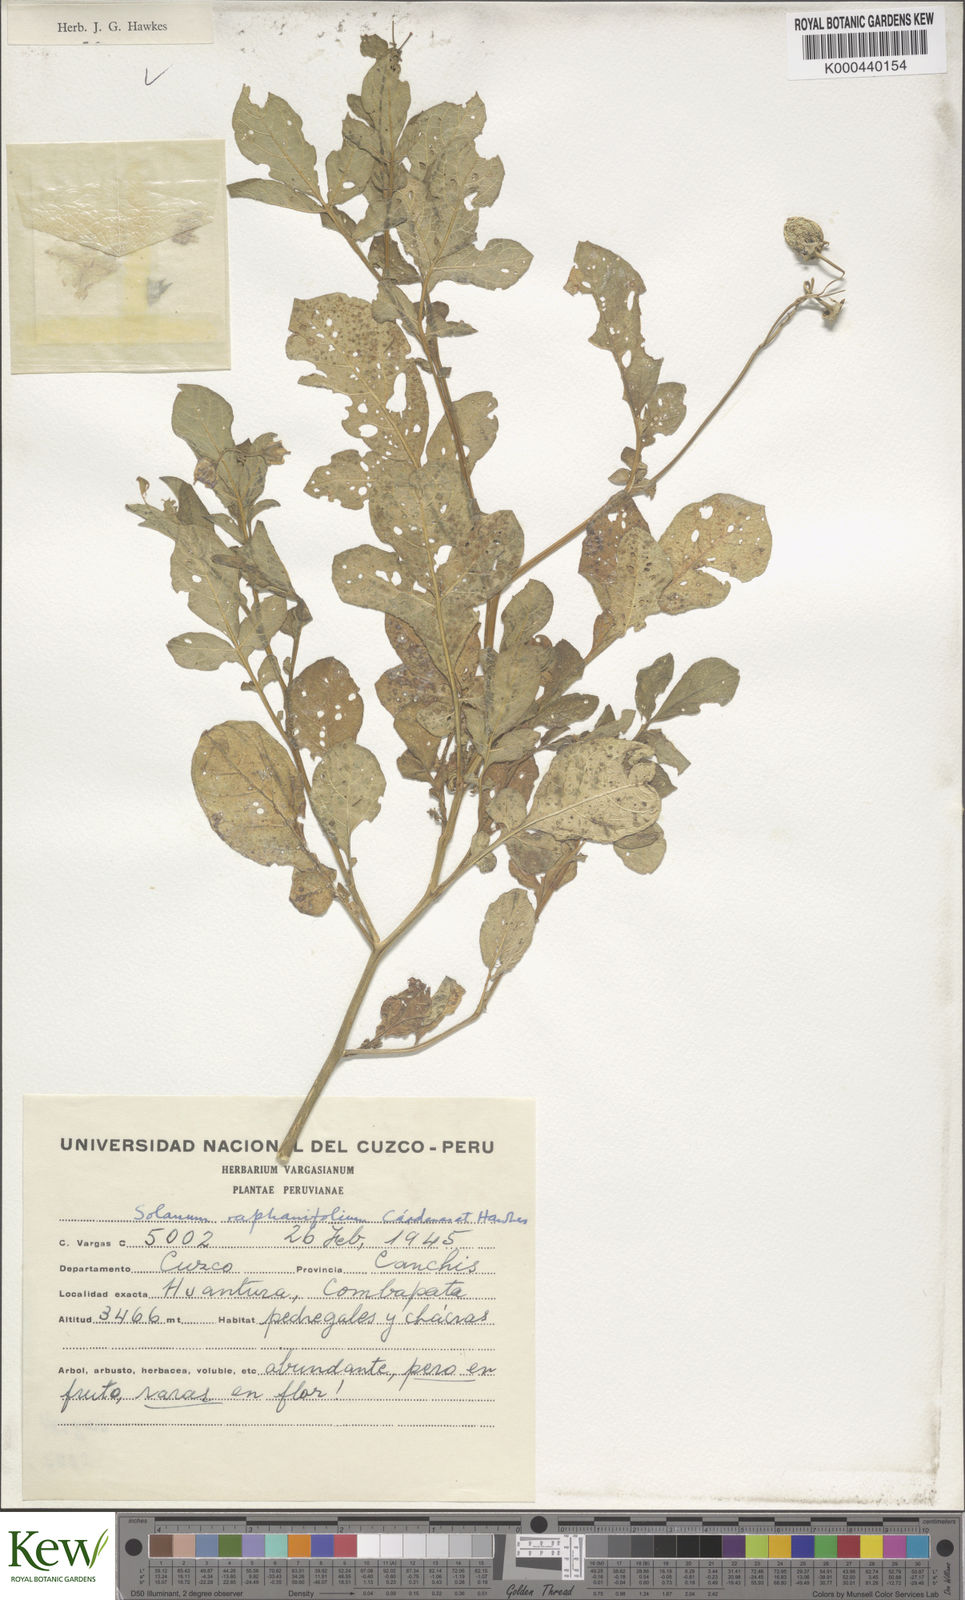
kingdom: Plantae
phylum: Tracheophyta
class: Magnoliopsida
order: Solanales
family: Solanaceae
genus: Solanum
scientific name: Solanum raphanifolium
